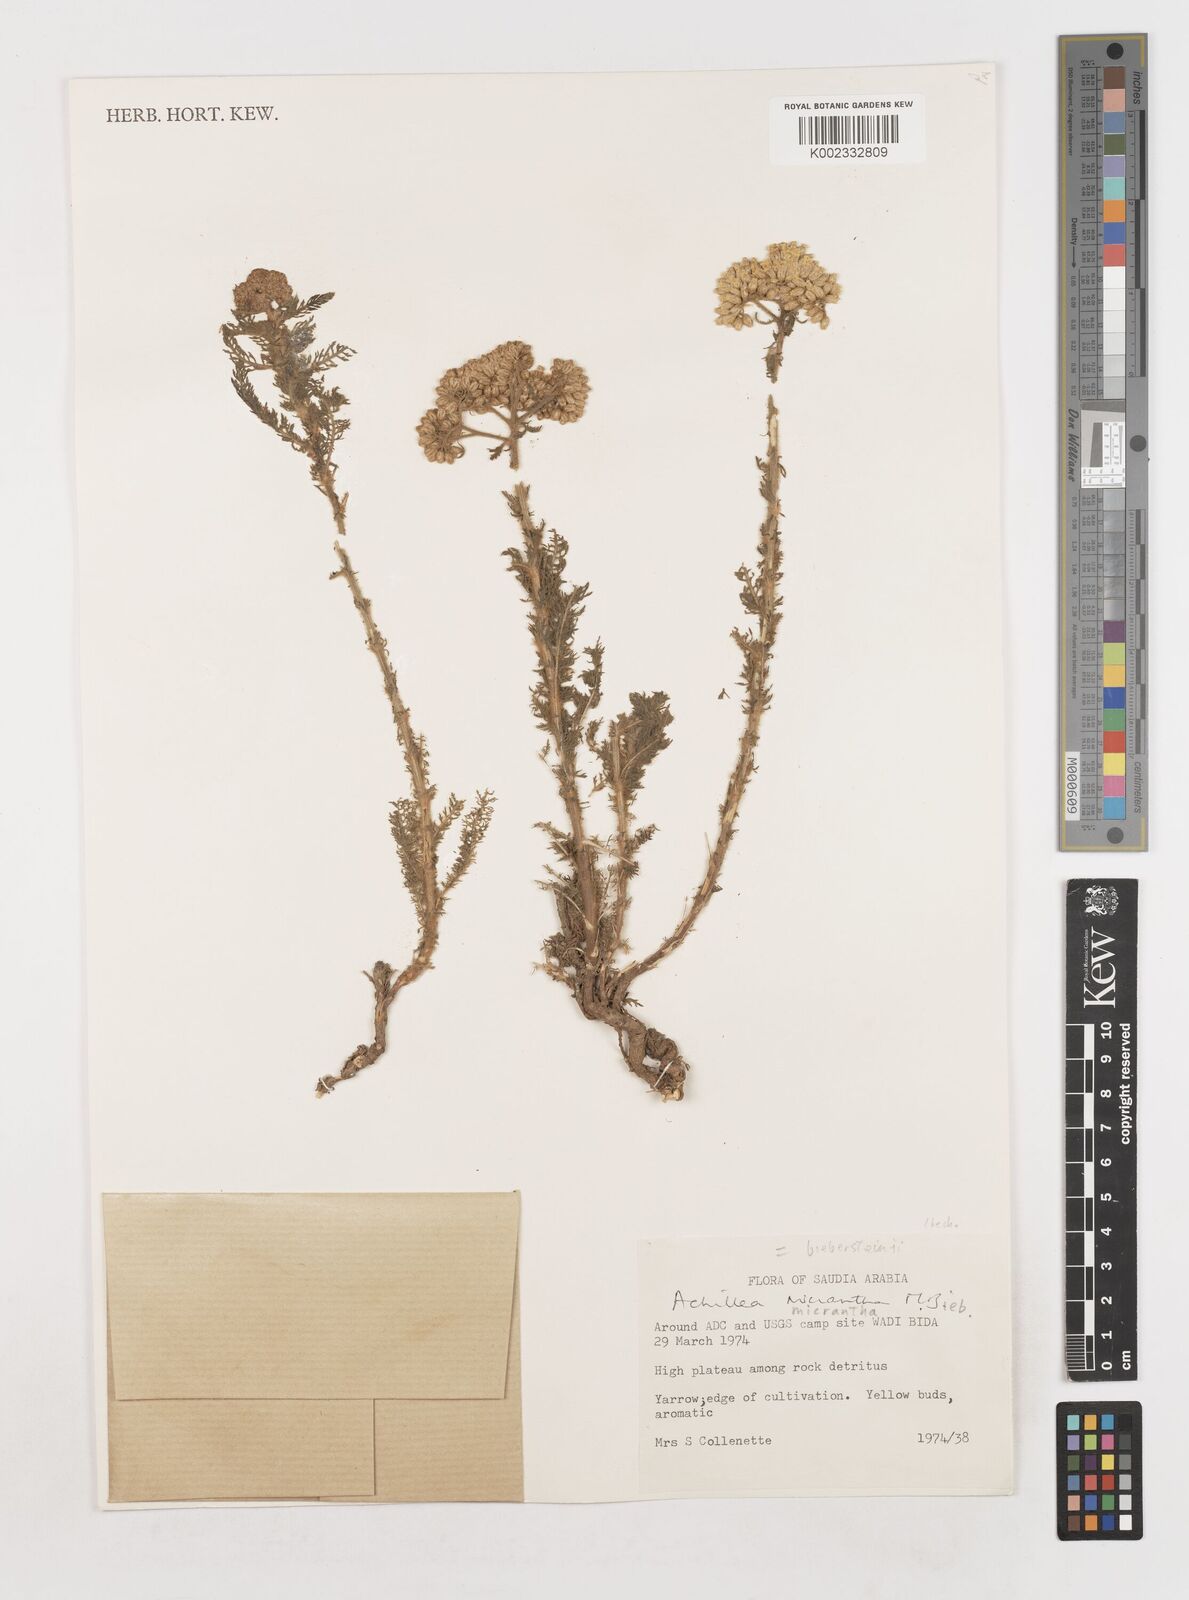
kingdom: Plantae
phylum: Tracheophyta
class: Magnoliopsida
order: Asterales
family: Asteraceae
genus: Achillea
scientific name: Achillea arabica
